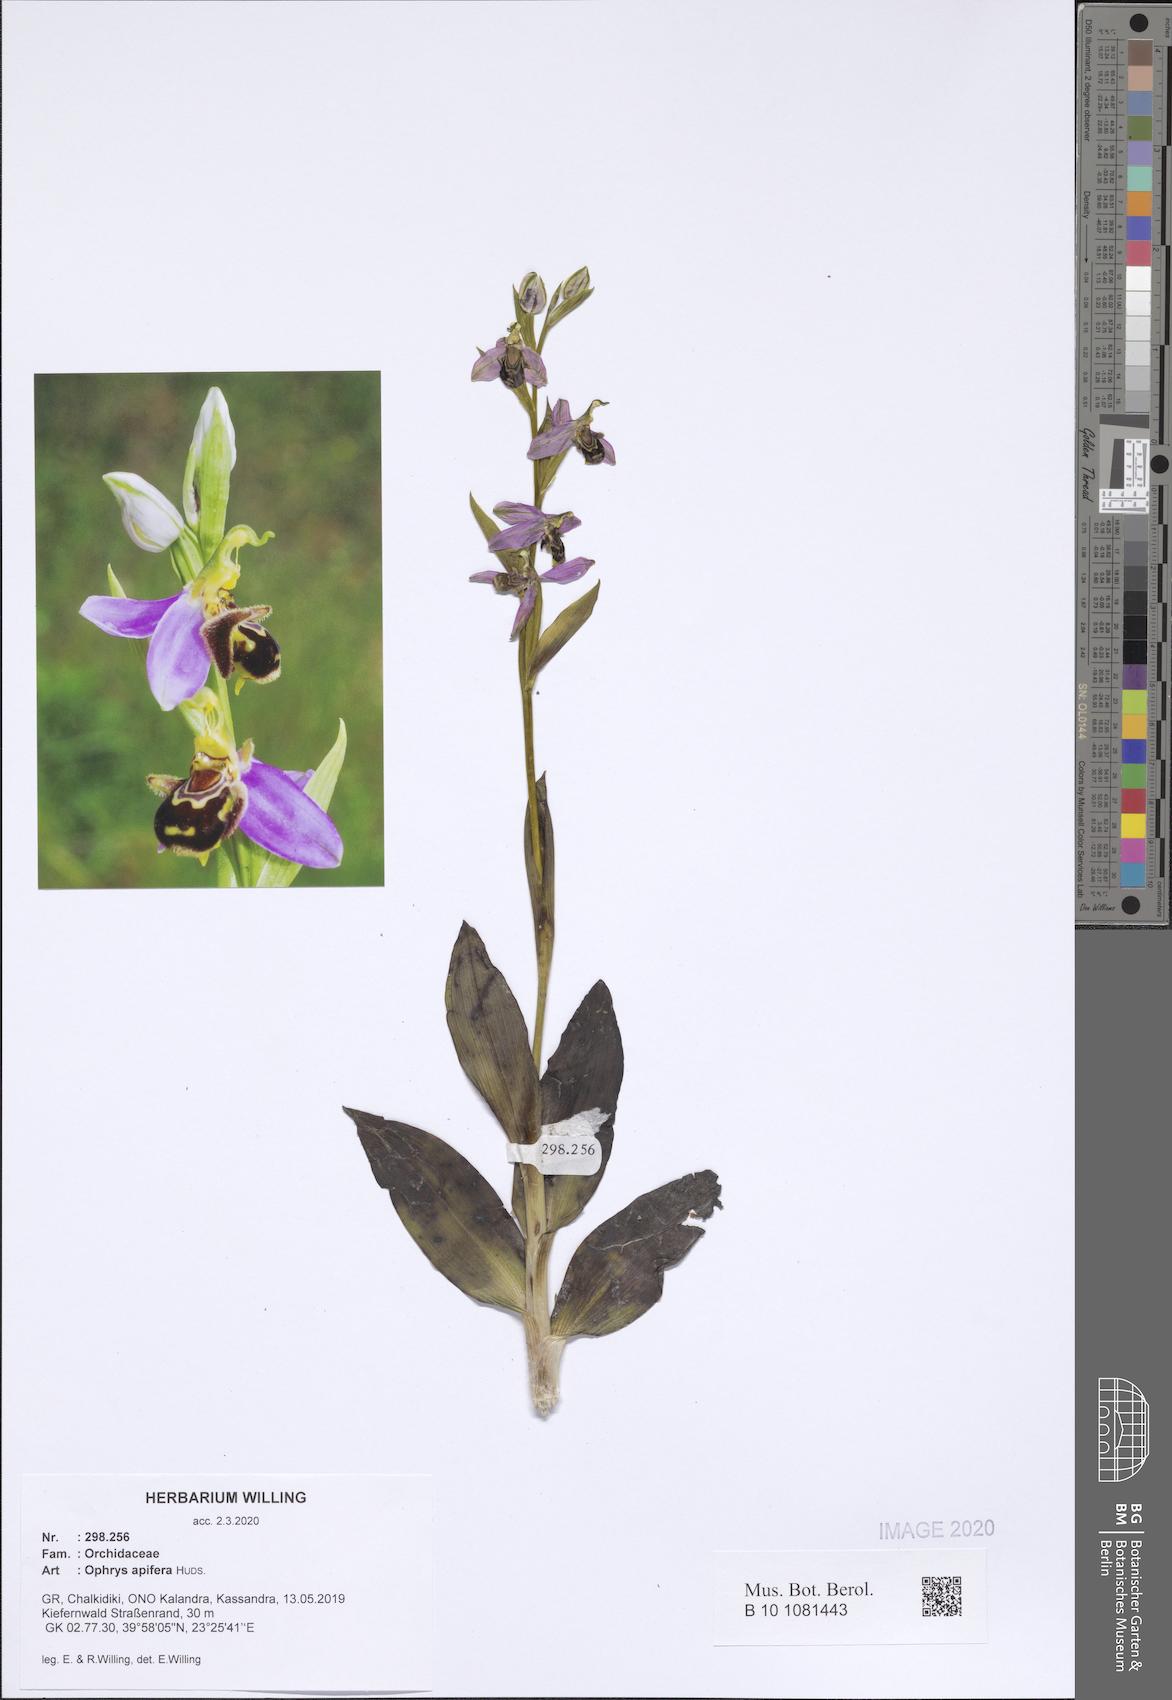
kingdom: Plantae
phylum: Tracheophyta
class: Liliopsida
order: Asparagales
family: Orchidaceae
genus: Ophrys
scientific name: Ophrys apifera
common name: Bee orchid
